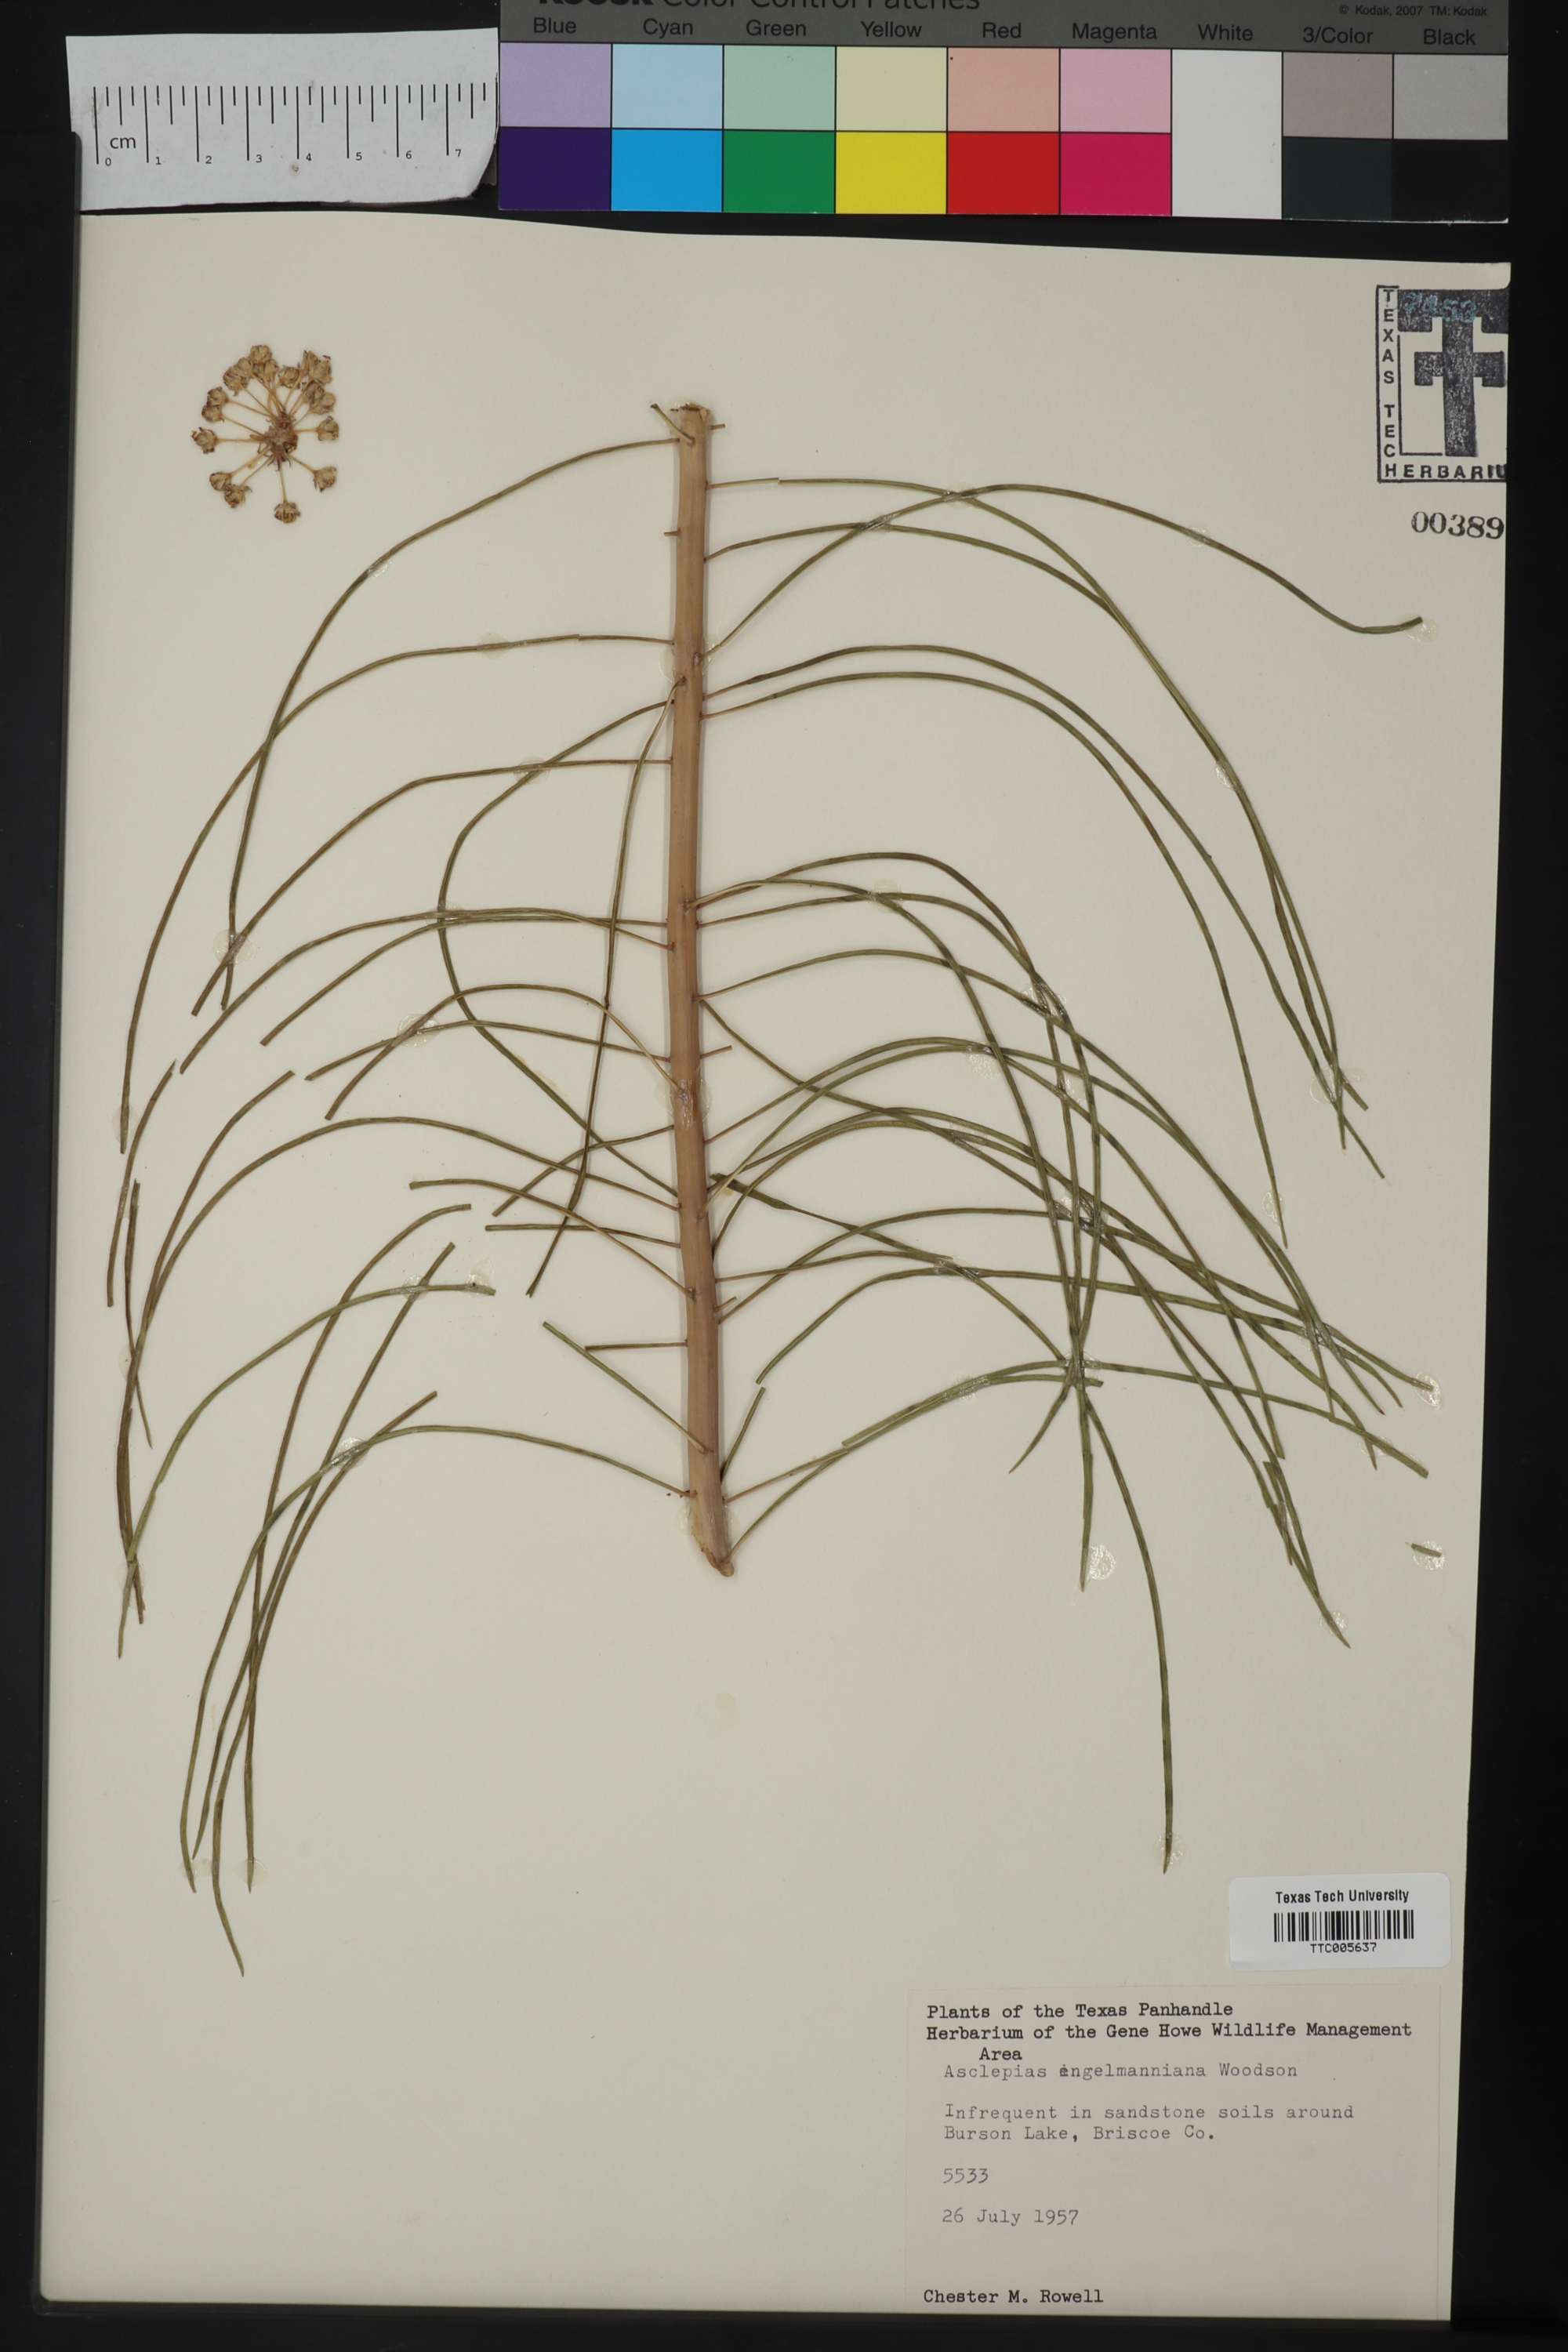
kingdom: Plantae
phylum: Tracheophyta
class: Magnoliopsida
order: Gentianales
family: Apocynaceae
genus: Asclepias
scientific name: Asclepias
